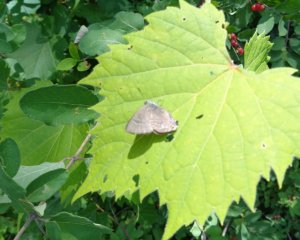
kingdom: Animalia
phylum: Arthropoda
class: Insecta
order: Lepidoptera
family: Lycaenidae
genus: Satyrium
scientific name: Satyrium calanus
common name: Banded Hairstreak
